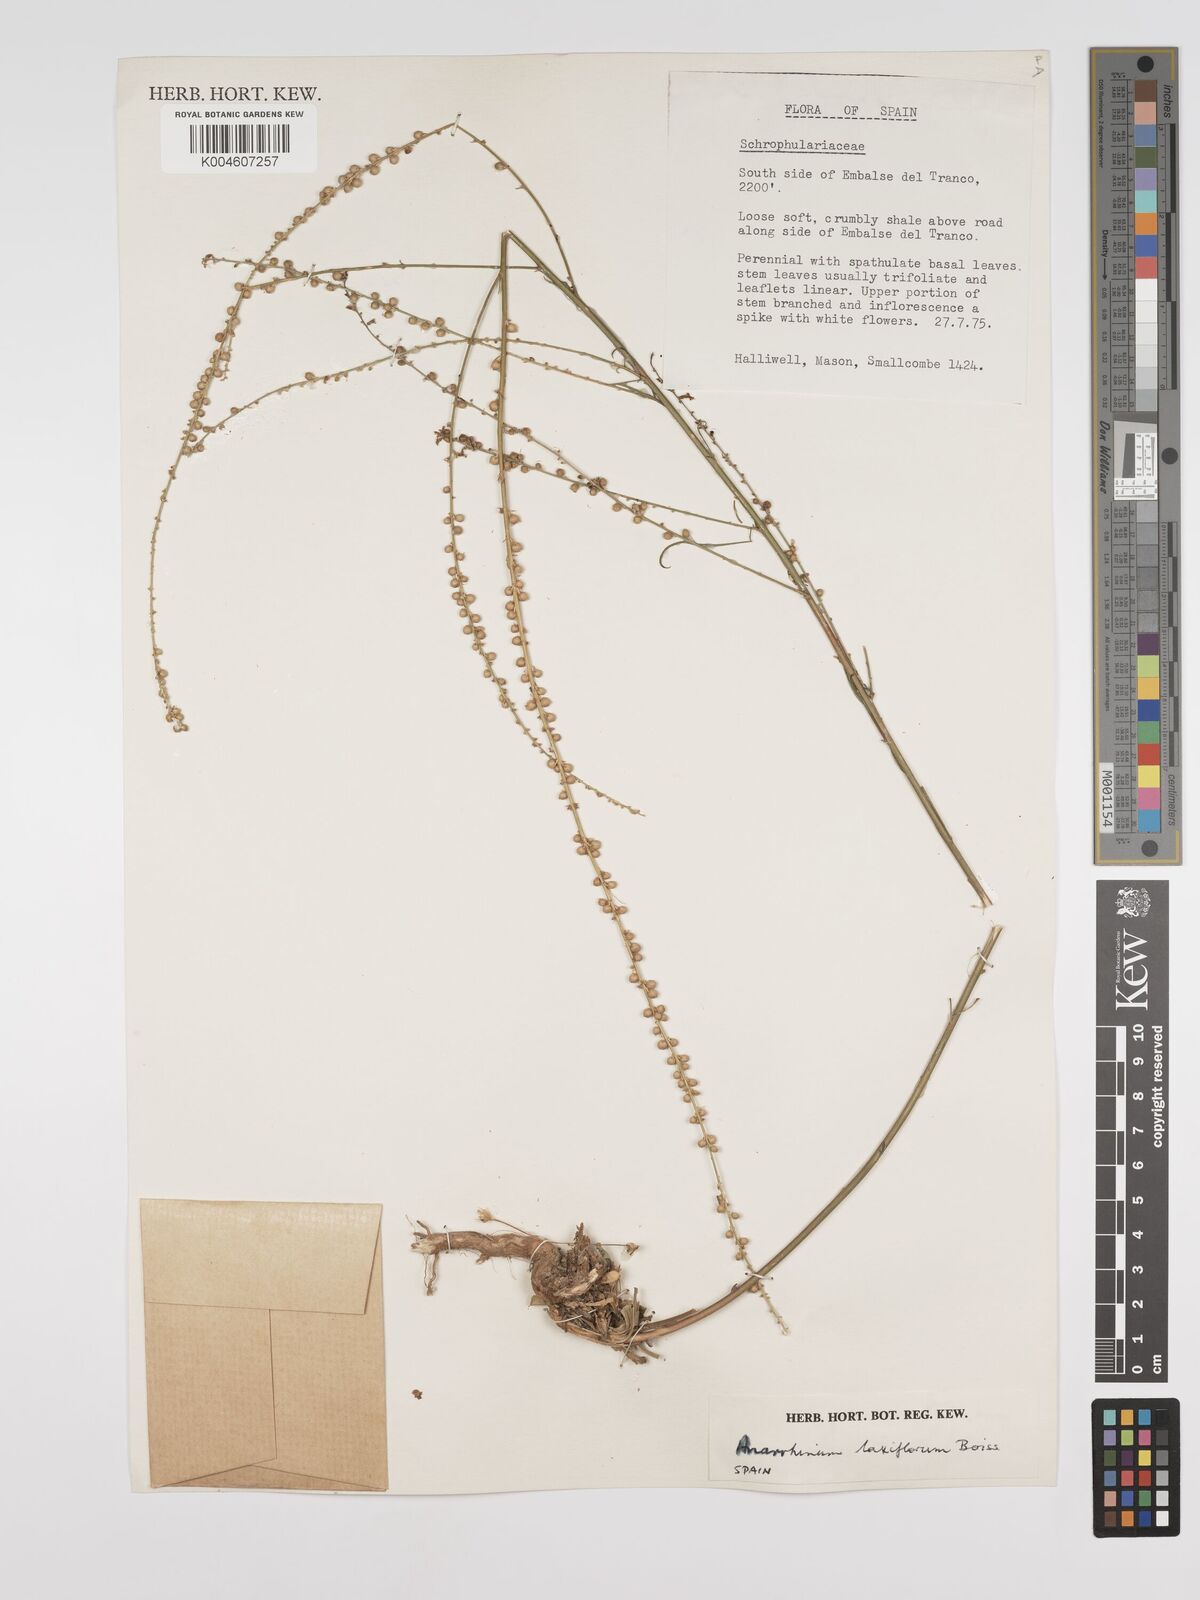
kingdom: Plantae
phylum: Tracheophyta
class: Magnoliopsida
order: Lamiales
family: Plantaginaceae
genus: Anarrhinum
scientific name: Anarrhinum laxiflorum
